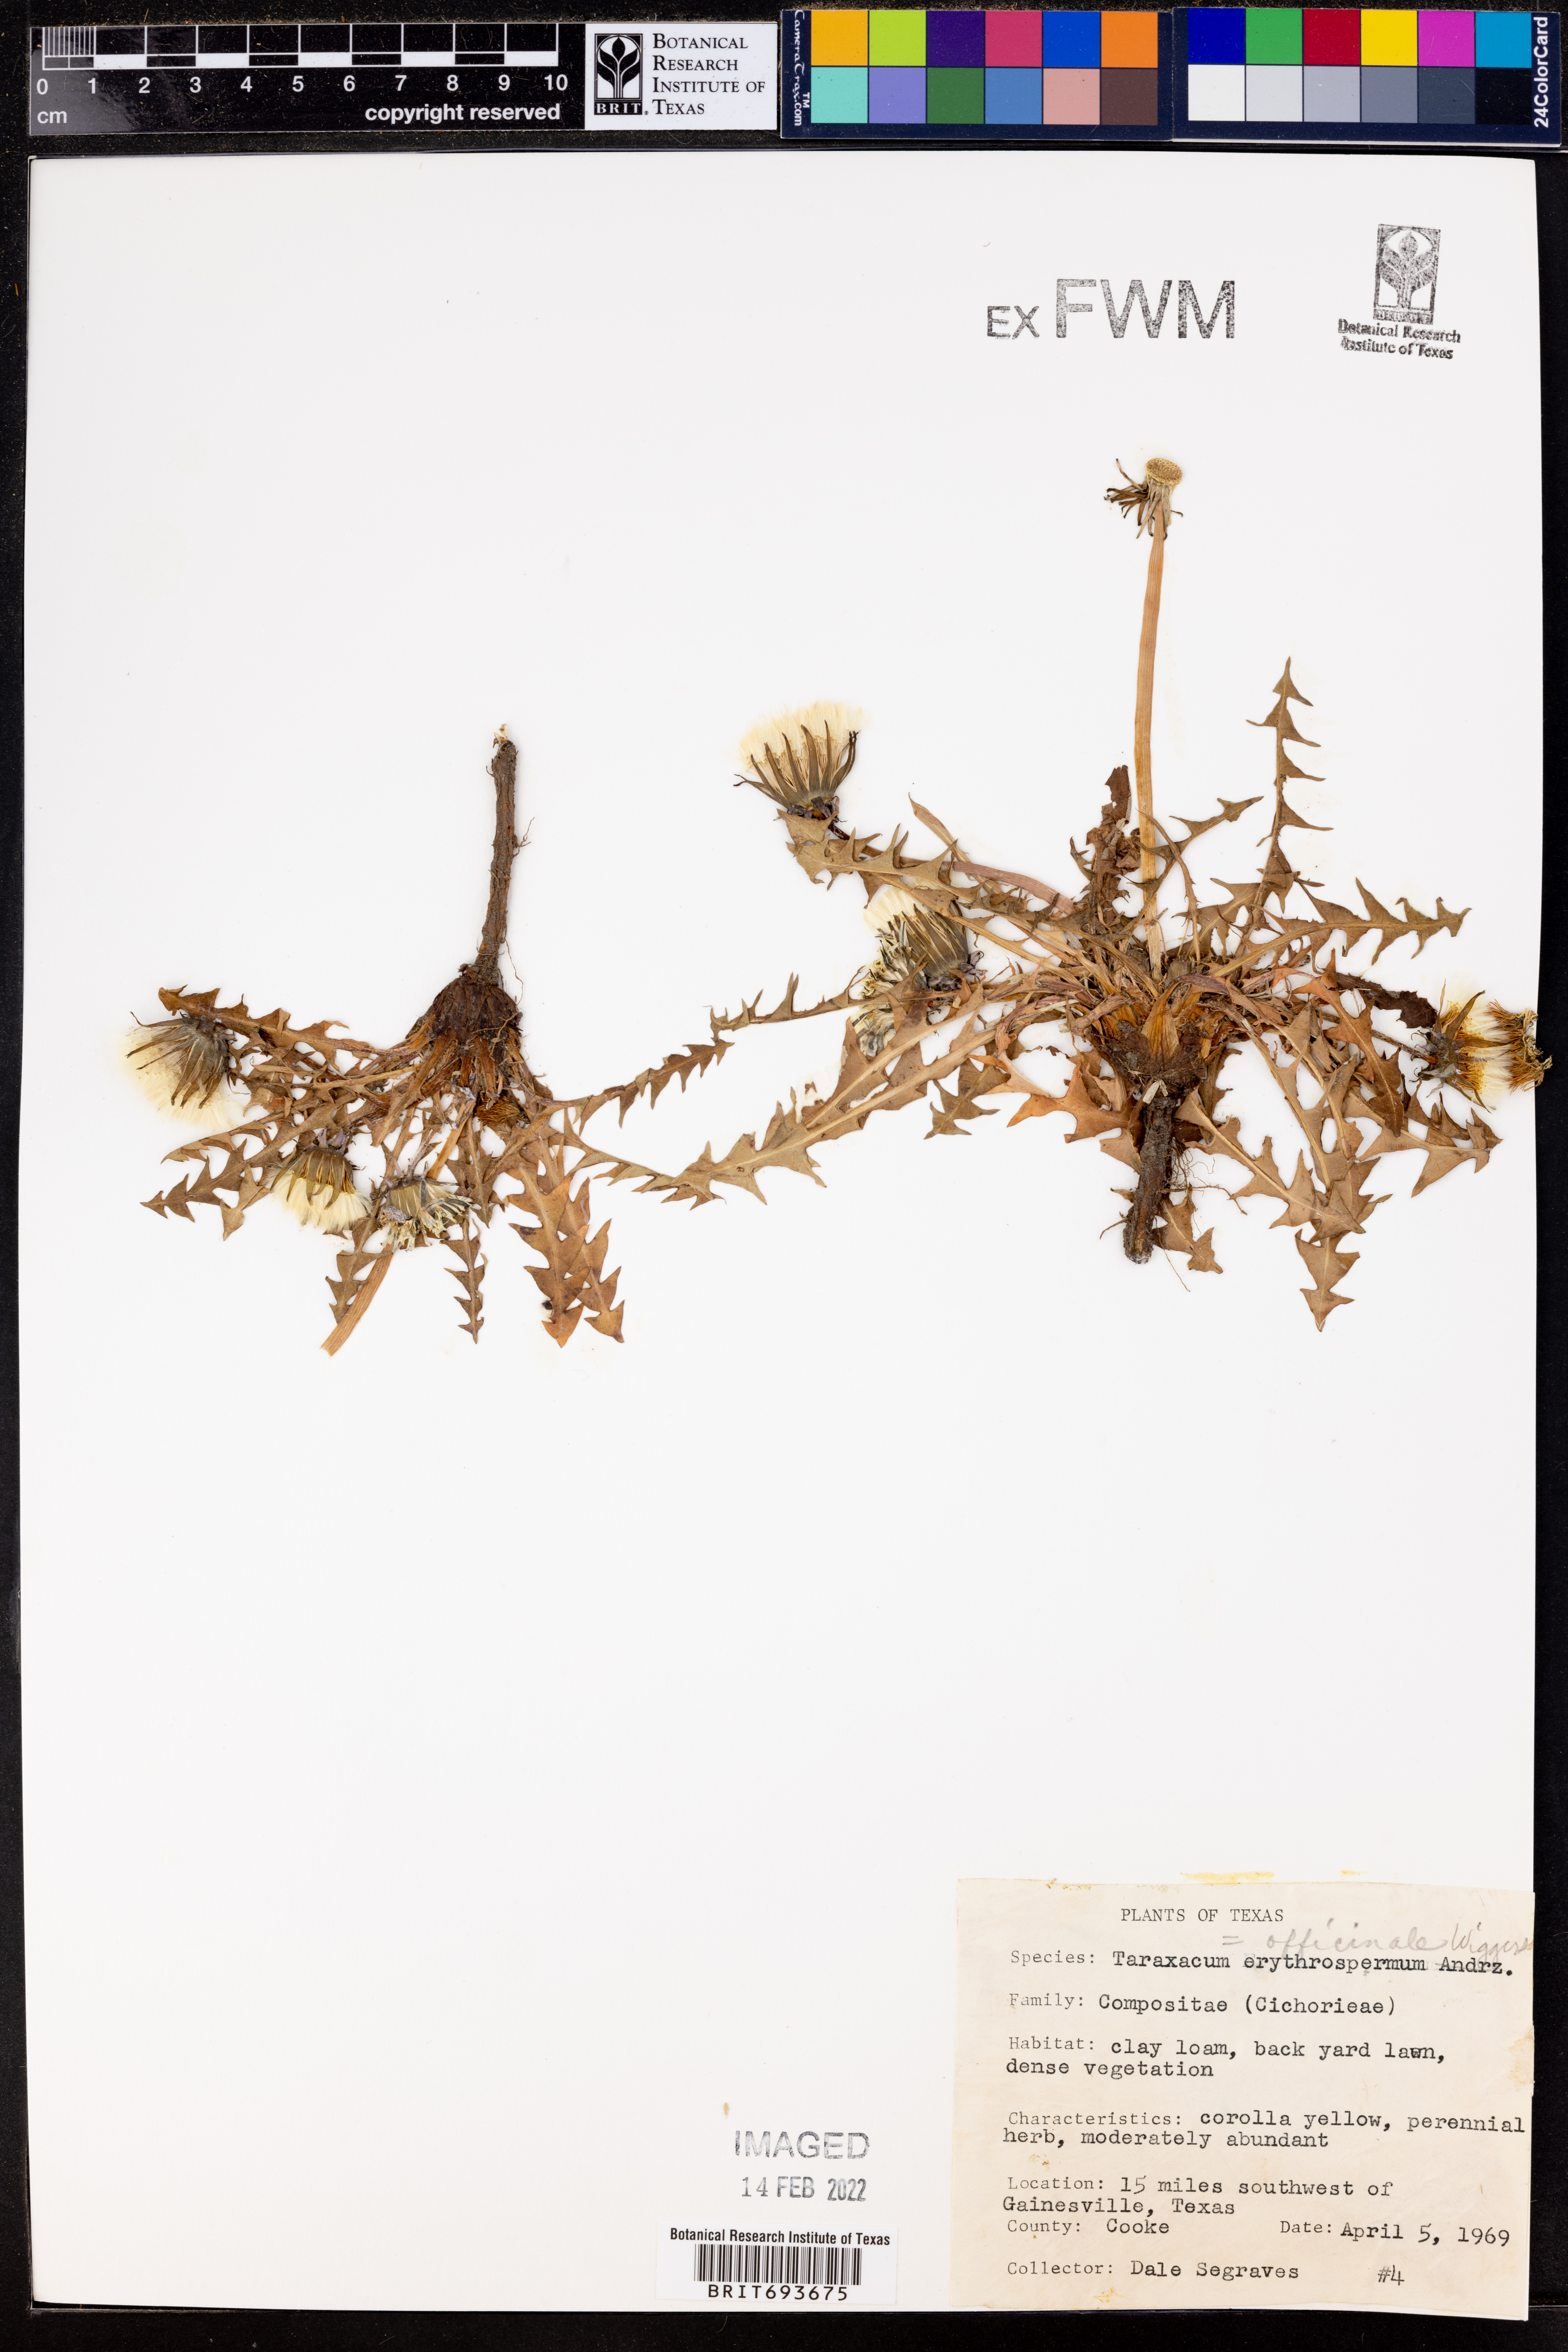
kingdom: Plantae
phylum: Tracheophyta
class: Magnoliopsida
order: Asterales
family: Asteraceae
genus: Taraxacum
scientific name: Taraxacum officinale
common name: Common dandelion
